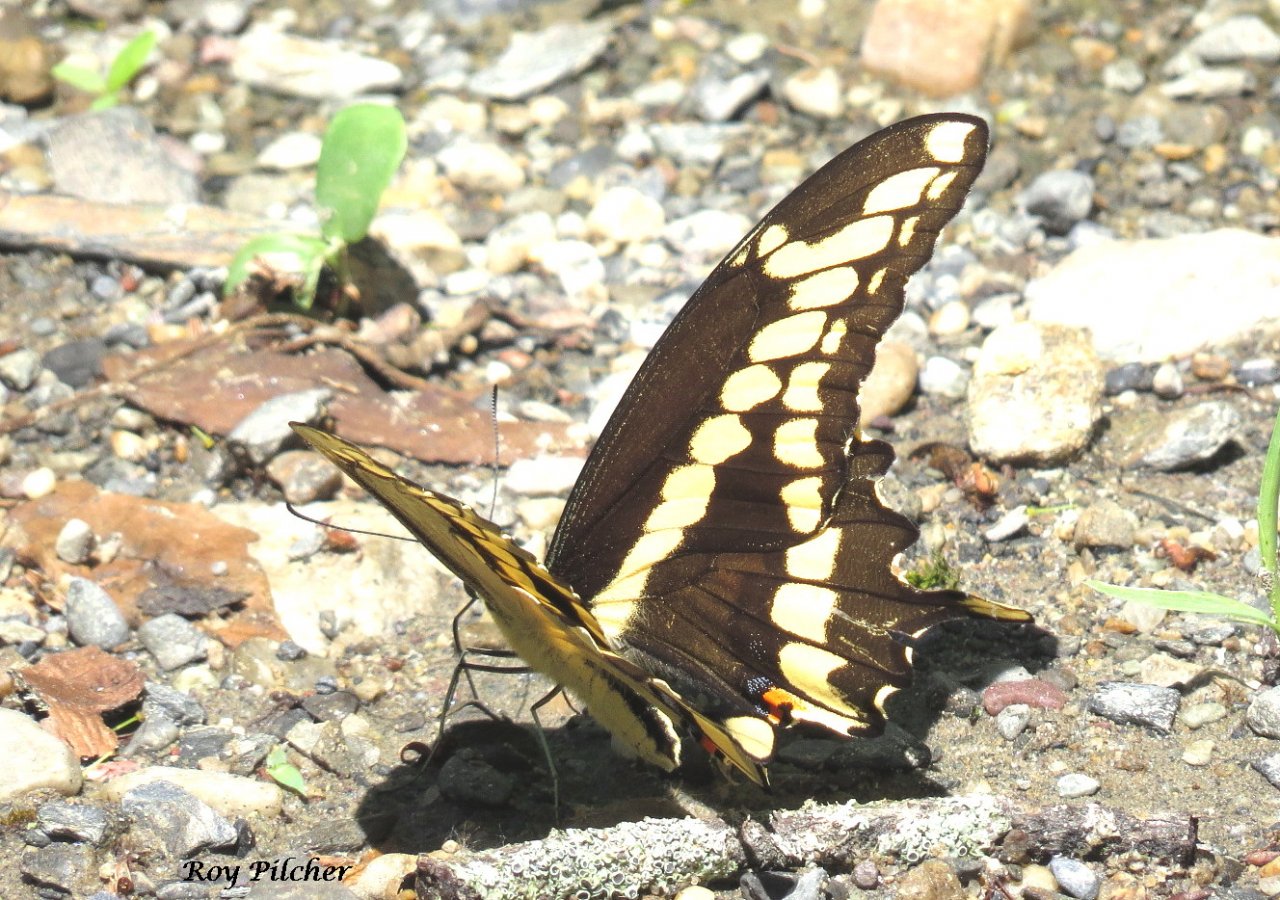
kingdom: Animalia
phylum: Arthropoda
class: Insecta
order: Lepidoptera
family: Papilionidae
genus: Papilio
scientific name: Papilio cresphontes
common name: Eastern Giant Swallowtail
